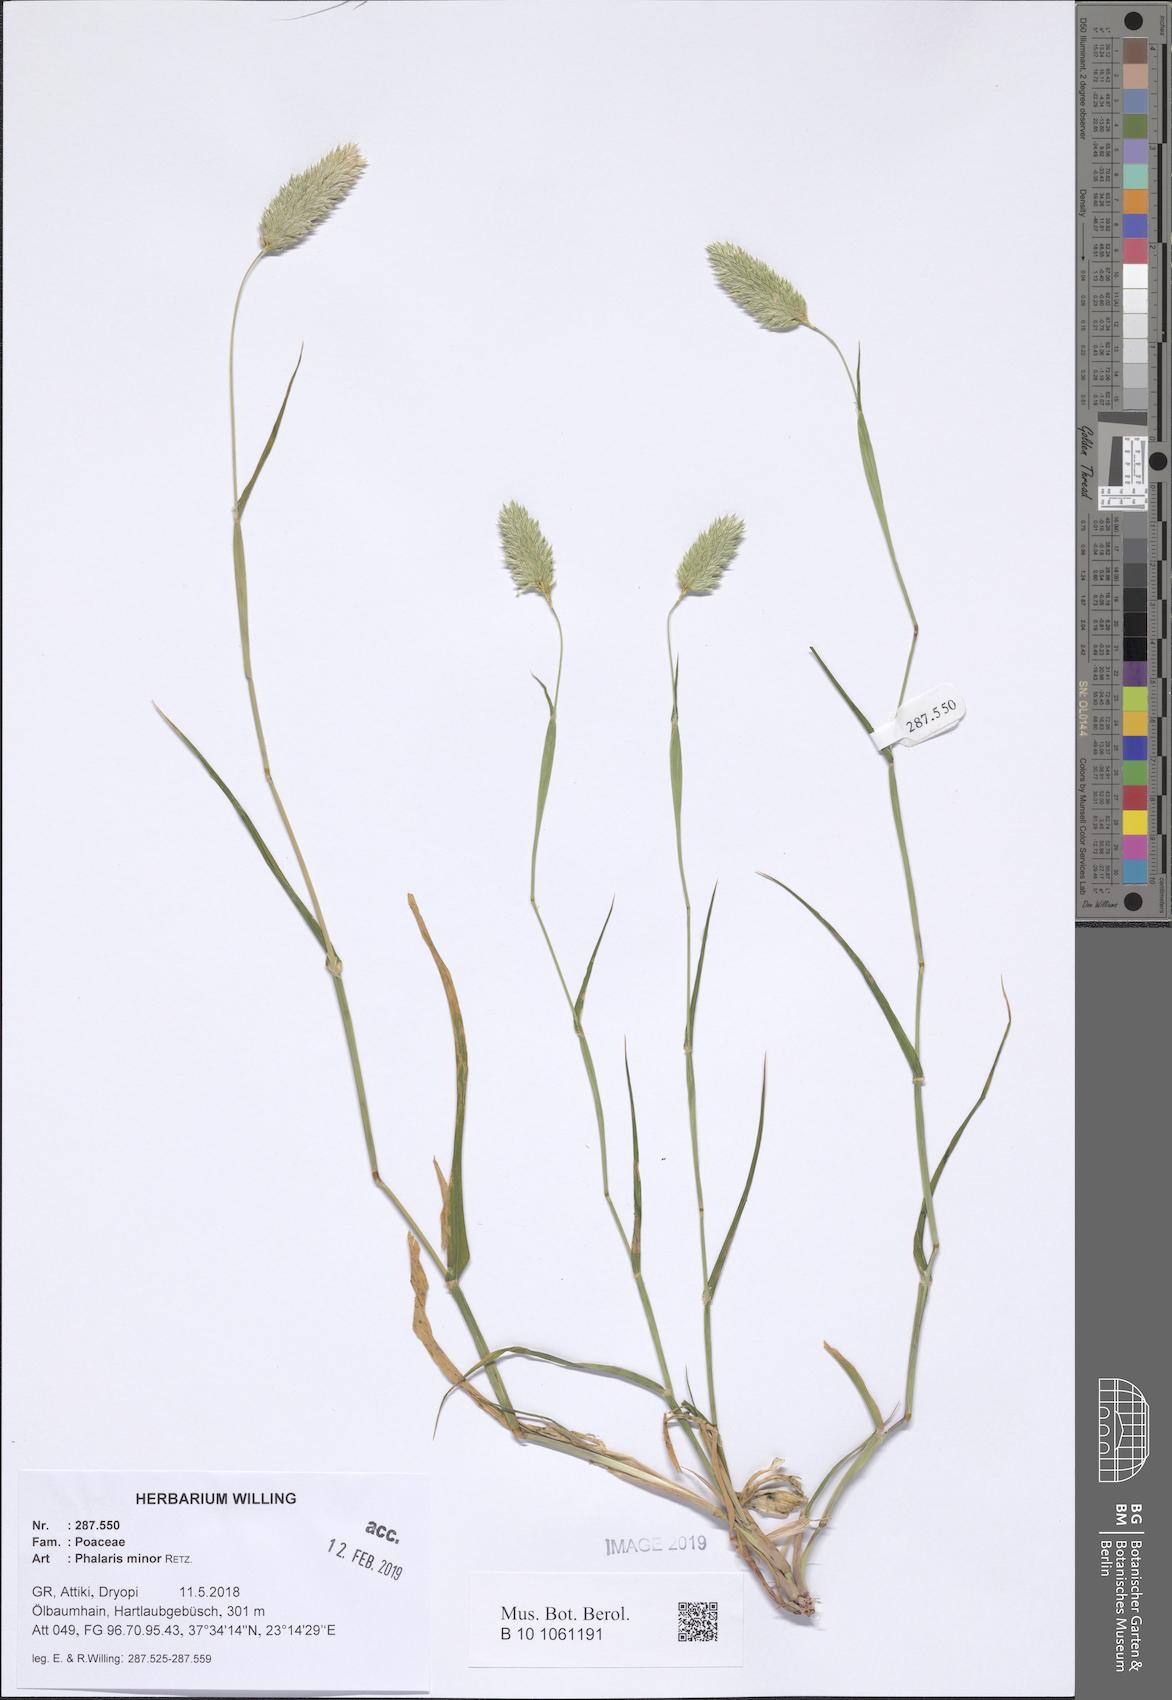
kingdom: Plantae
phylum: Tracheophyta
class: Liliopsida
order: Poales
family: Poaceae
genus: Phalaris
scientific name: Phalaris minor
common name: Littleseed canarygrass
